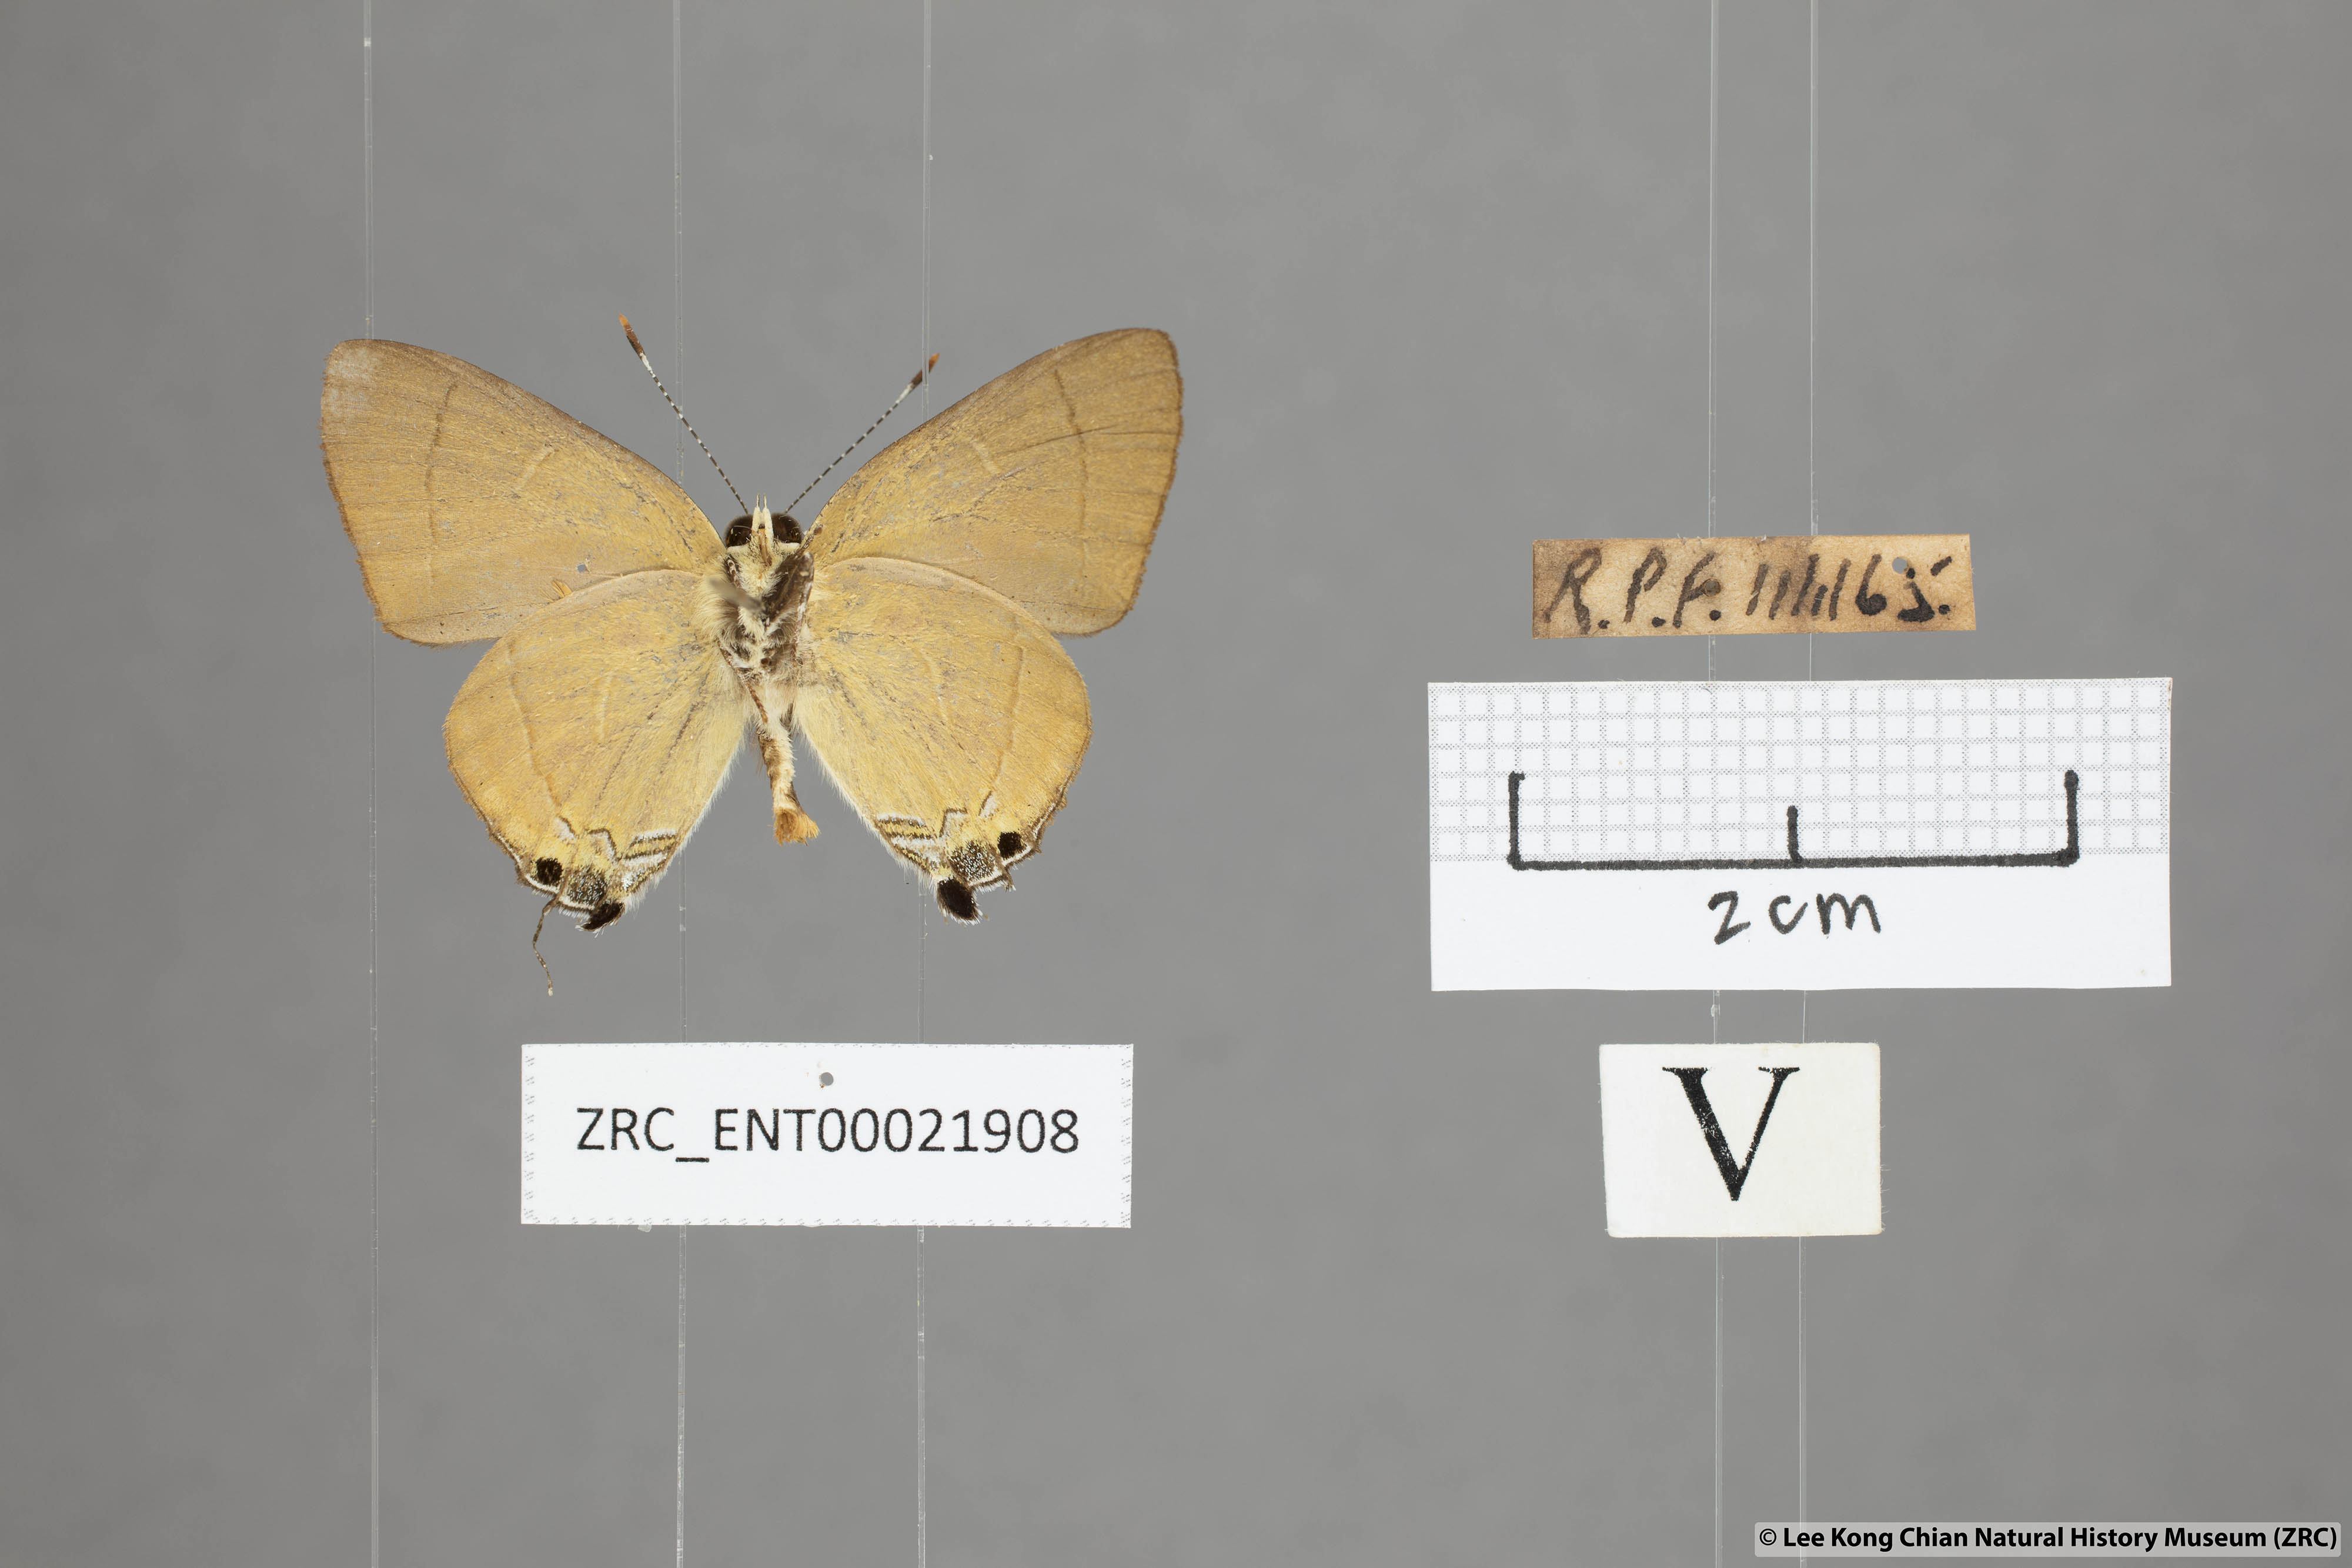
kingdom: Animalia
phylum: Arthropoda
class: Insecta
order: Lepidoptera
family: Lycaenidae
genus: Rapala
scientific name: Rapala suffusa
